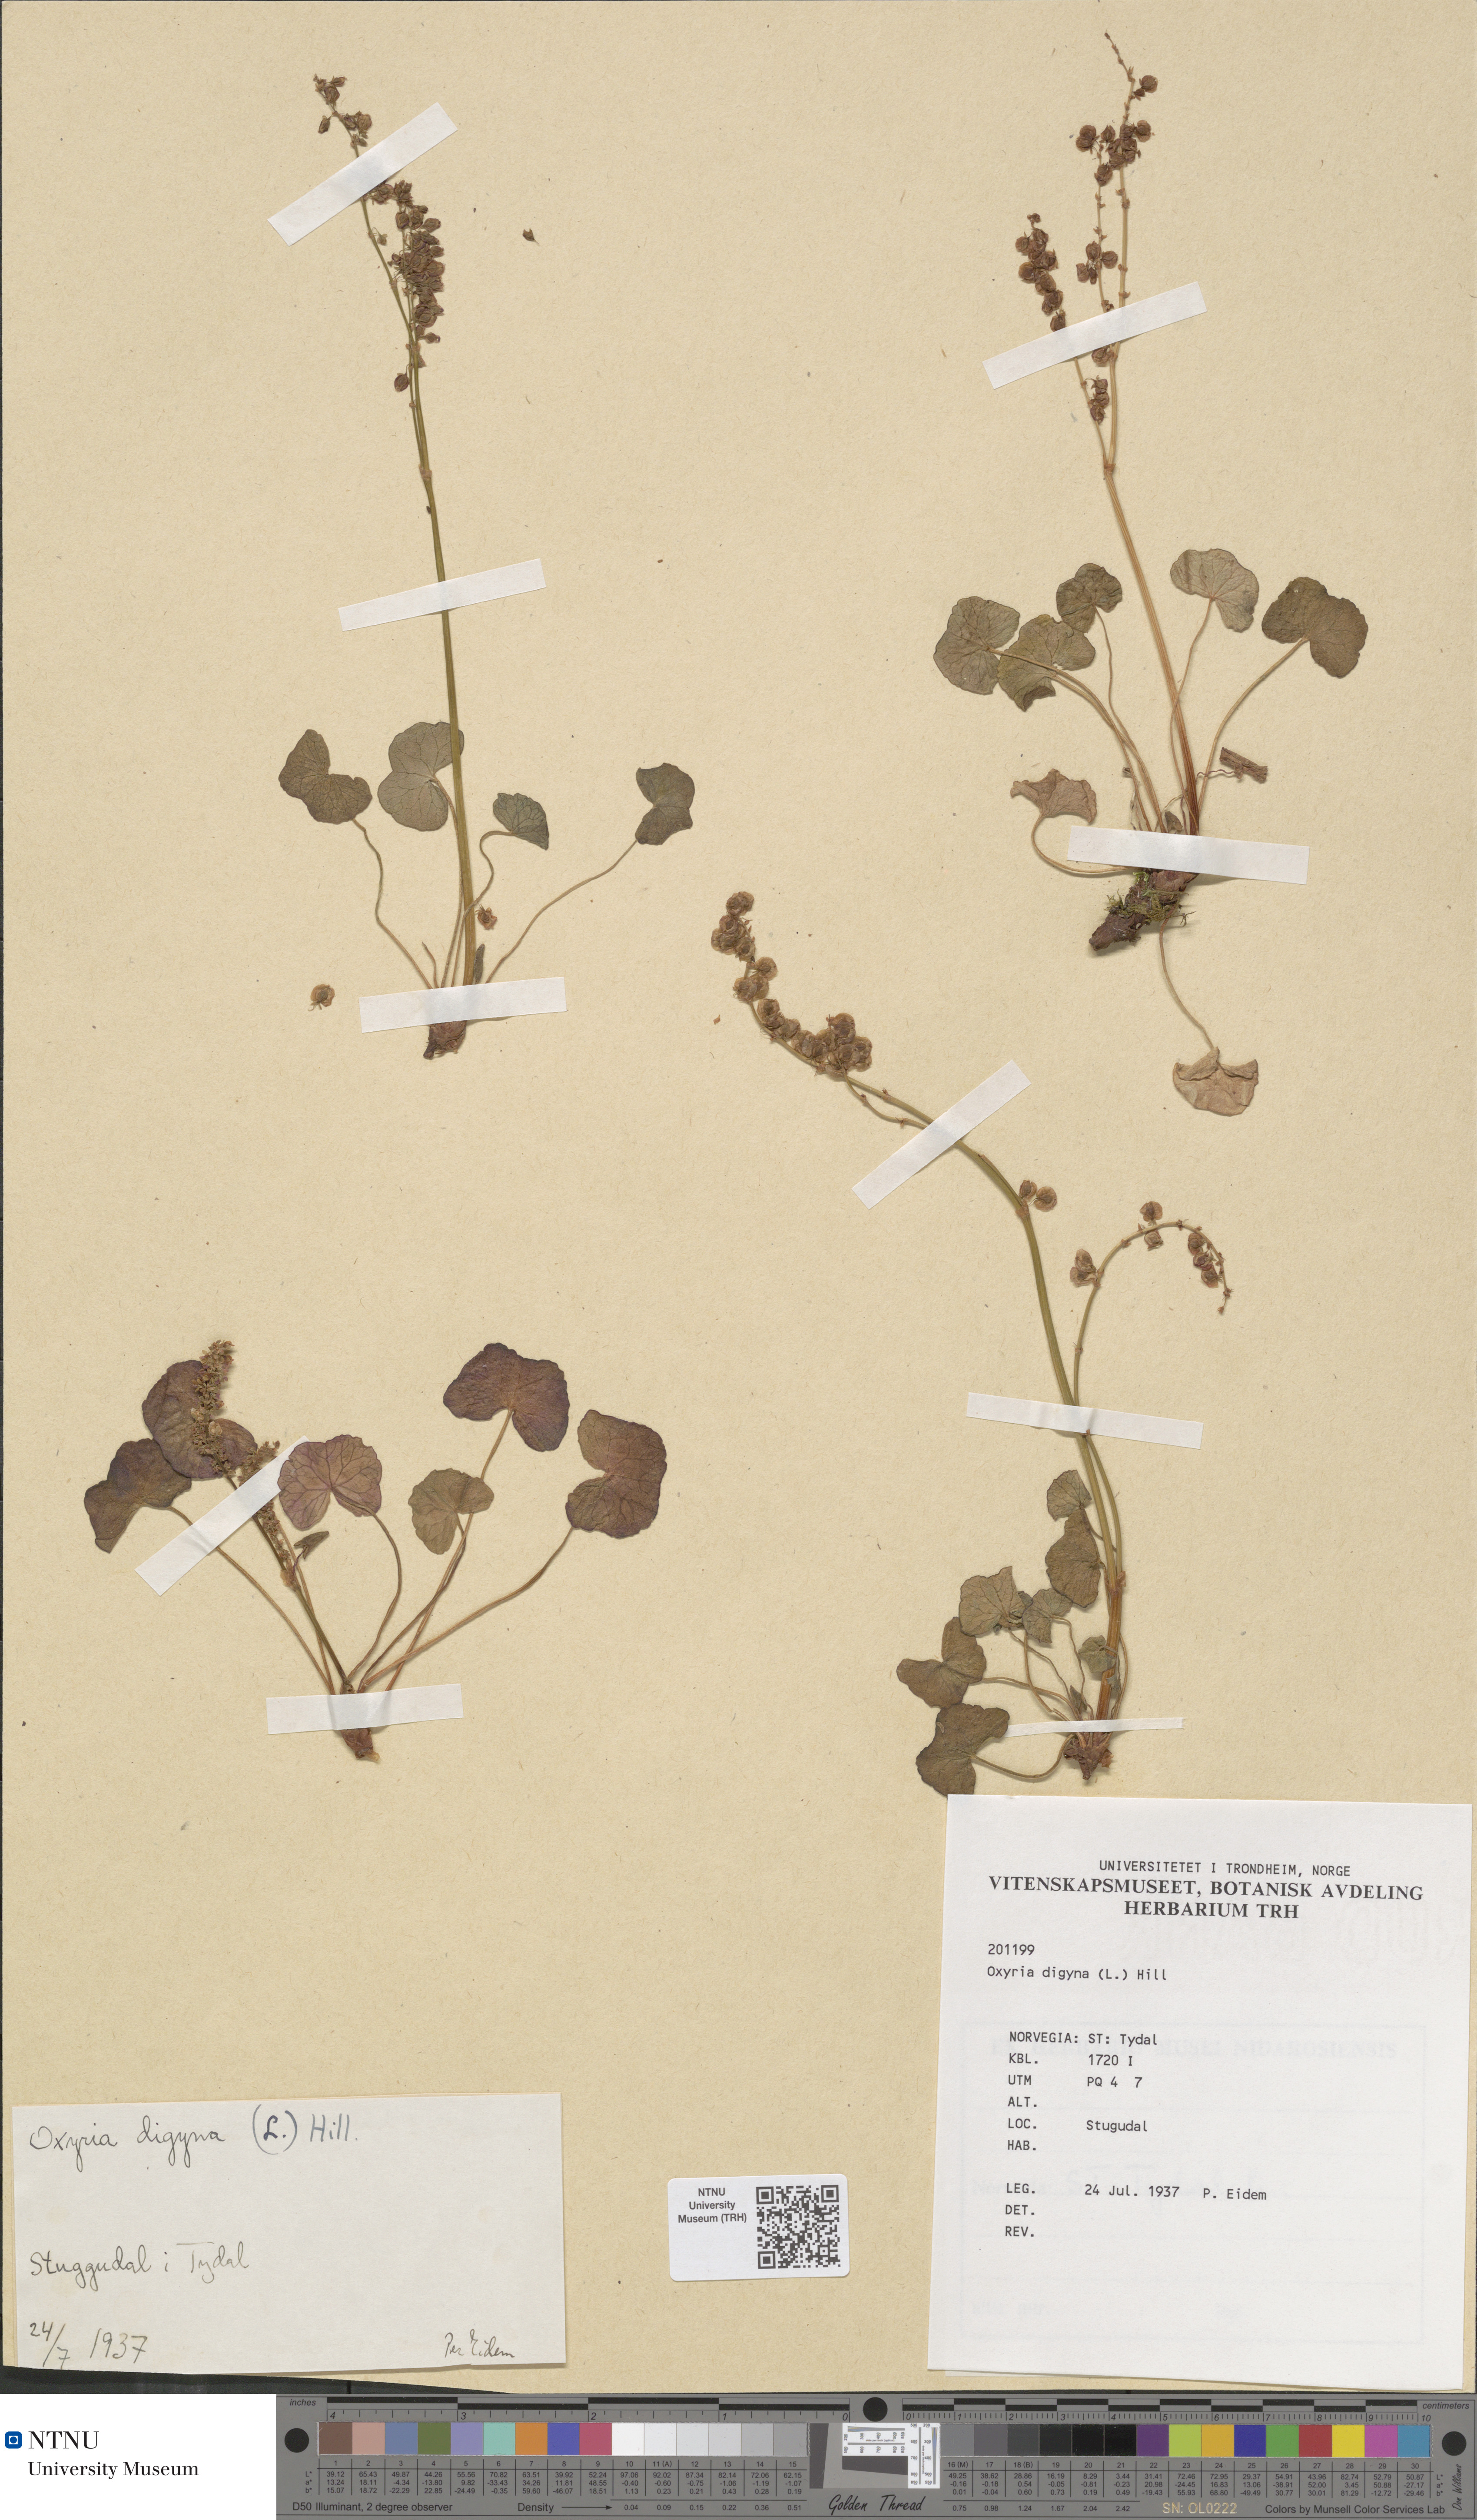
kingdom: Plantae
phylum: Tracheophyta
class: Magnoliopsida
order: Caryophyllales
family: Polygonaceae
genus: Oxyria
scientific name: Oxyria digyna
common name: Alpine mountain-sorrel
